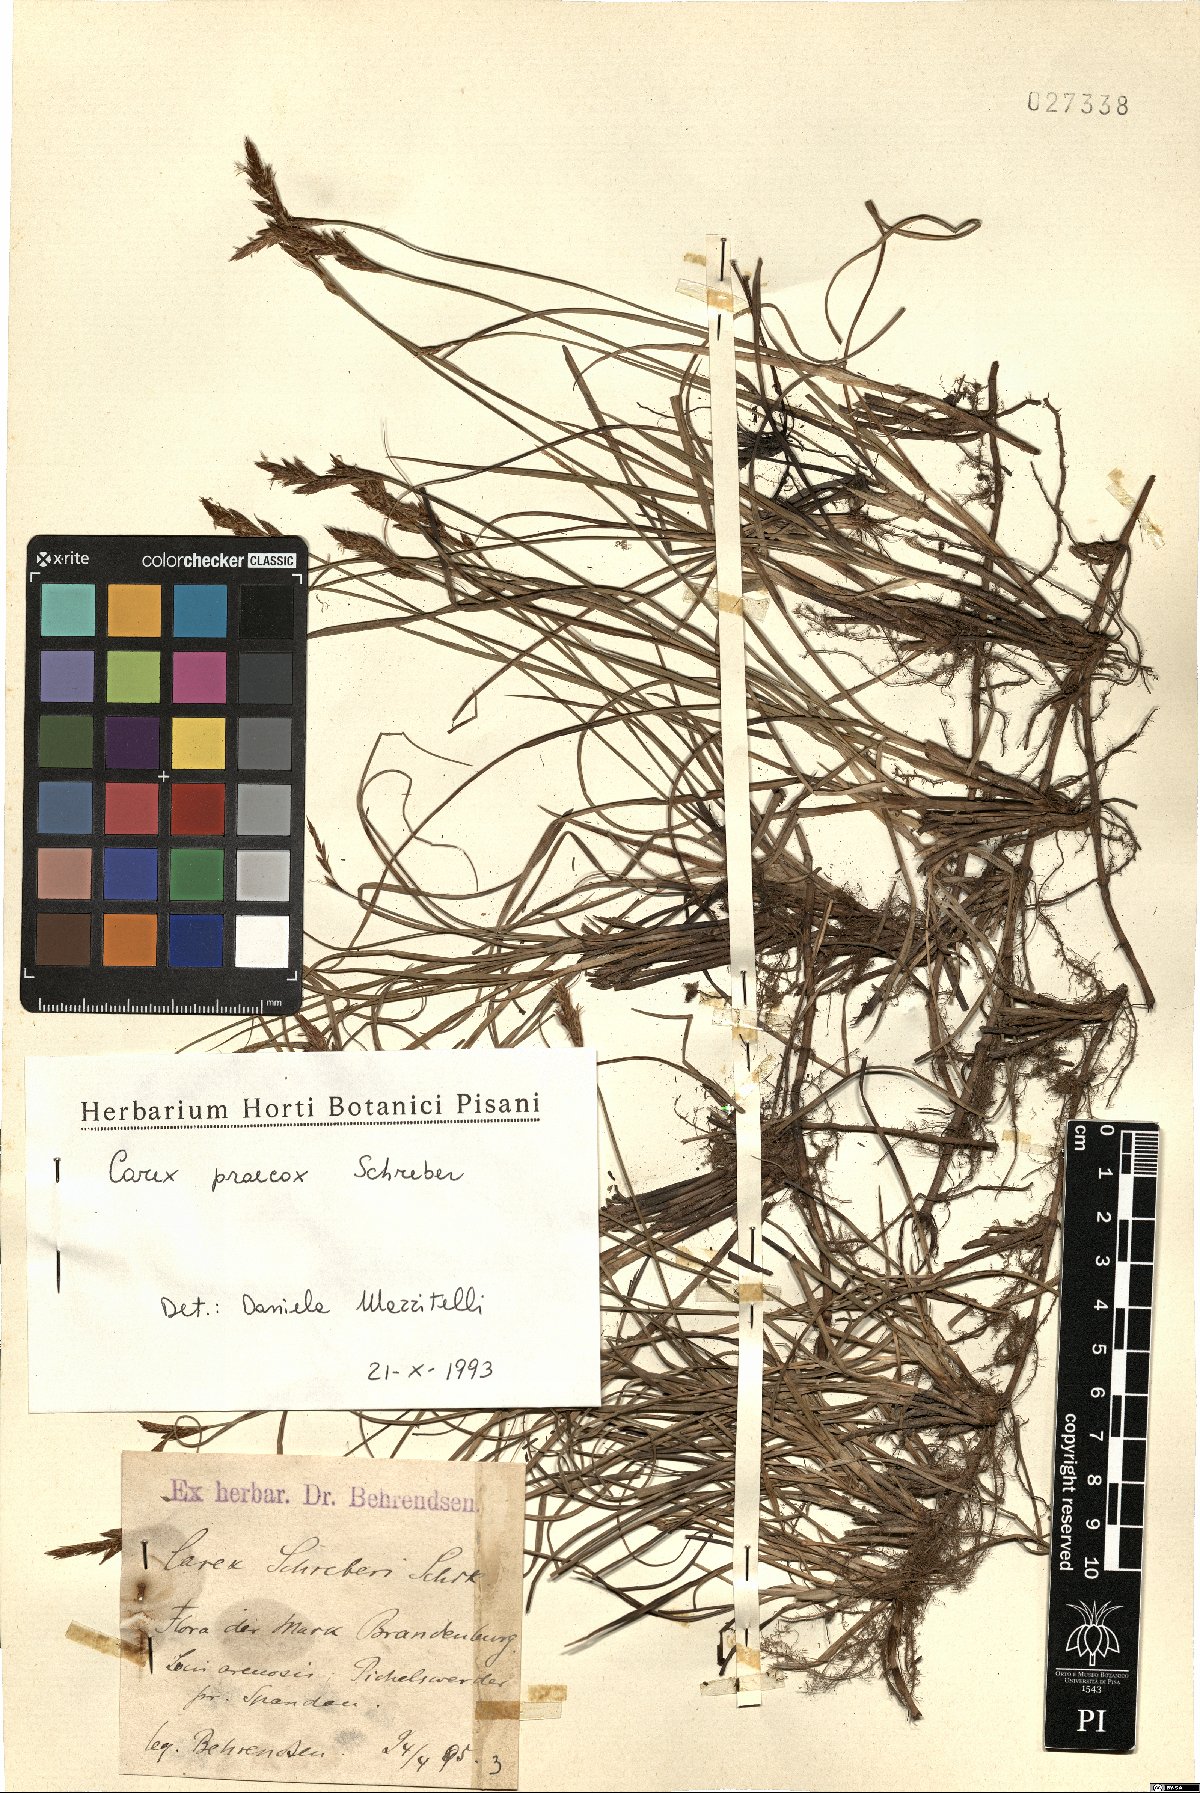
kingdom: Plantae
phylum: Tracheophyta
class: Liliopsida
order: Poales
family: Cyperaceae
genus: Carex
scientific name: Carex praecox
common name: Early sedge
